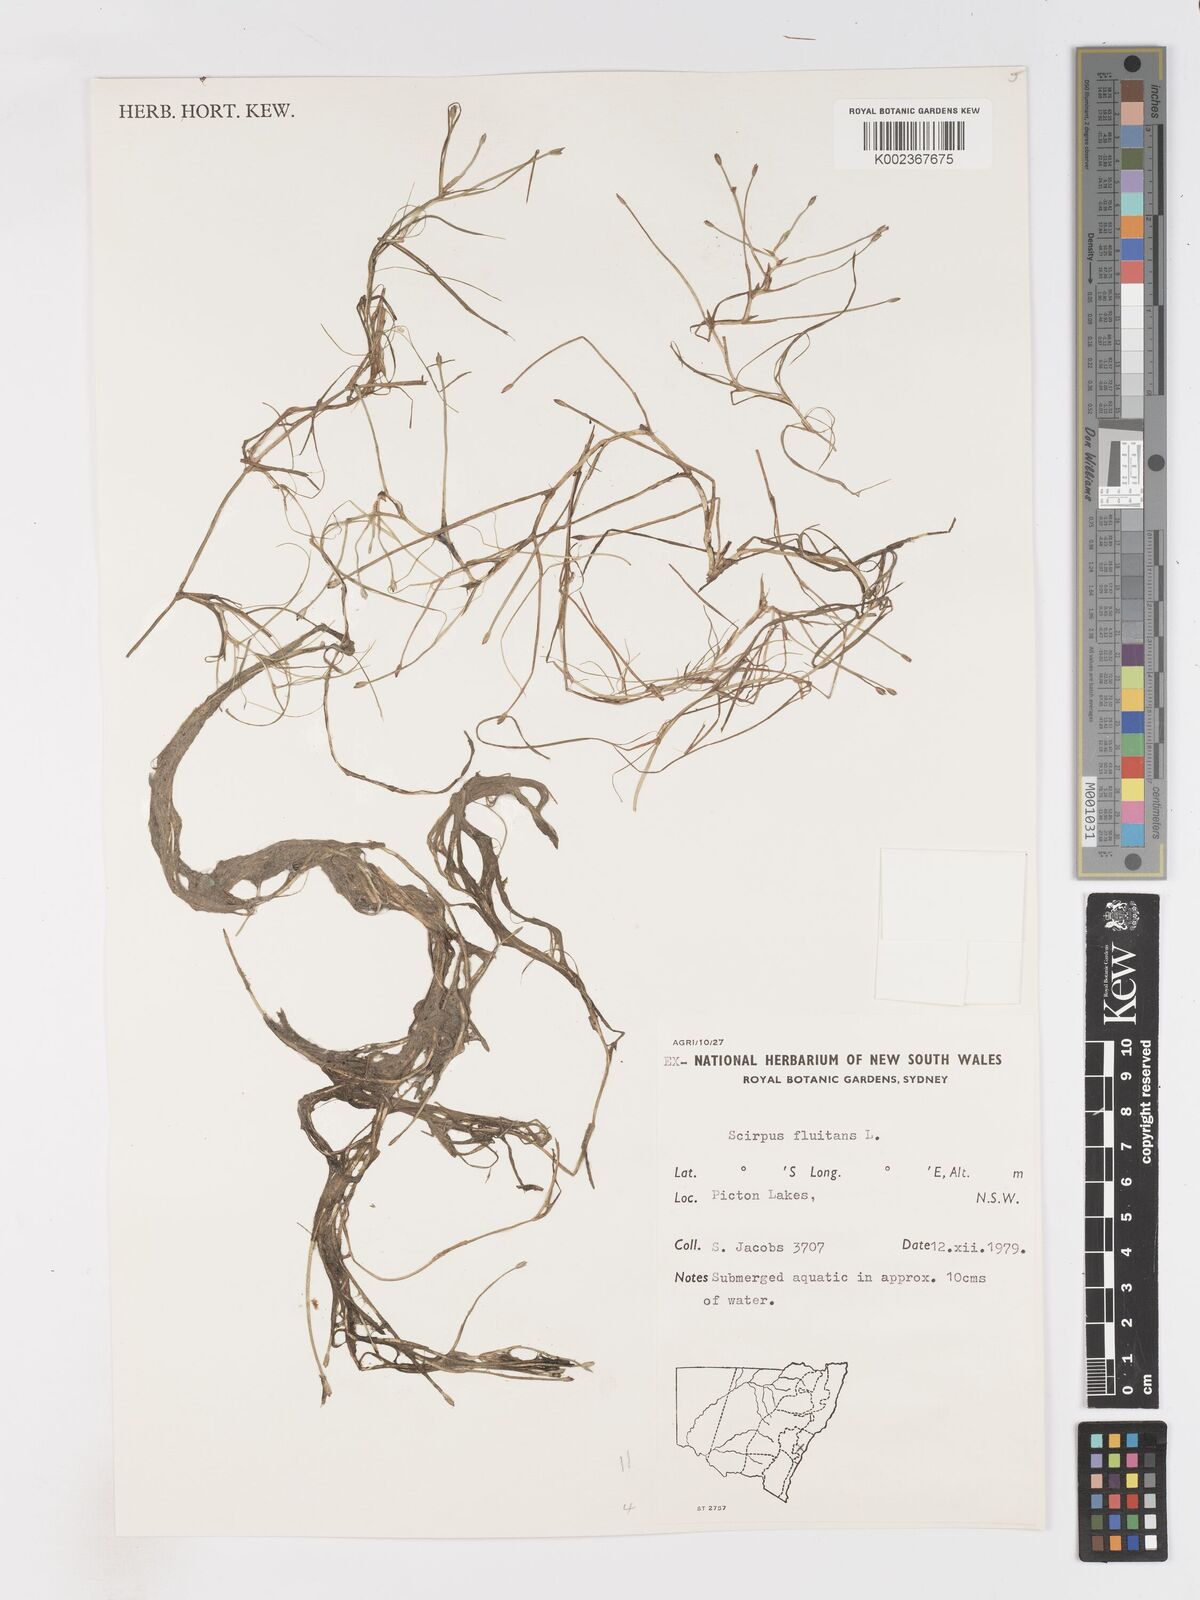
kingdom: Plantae
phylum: Tracheophyta
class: Liliopsida
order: Poales
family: Cyperaceae
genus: Isolepis
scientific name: Isolepis fluitans
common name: Floating club-rush
